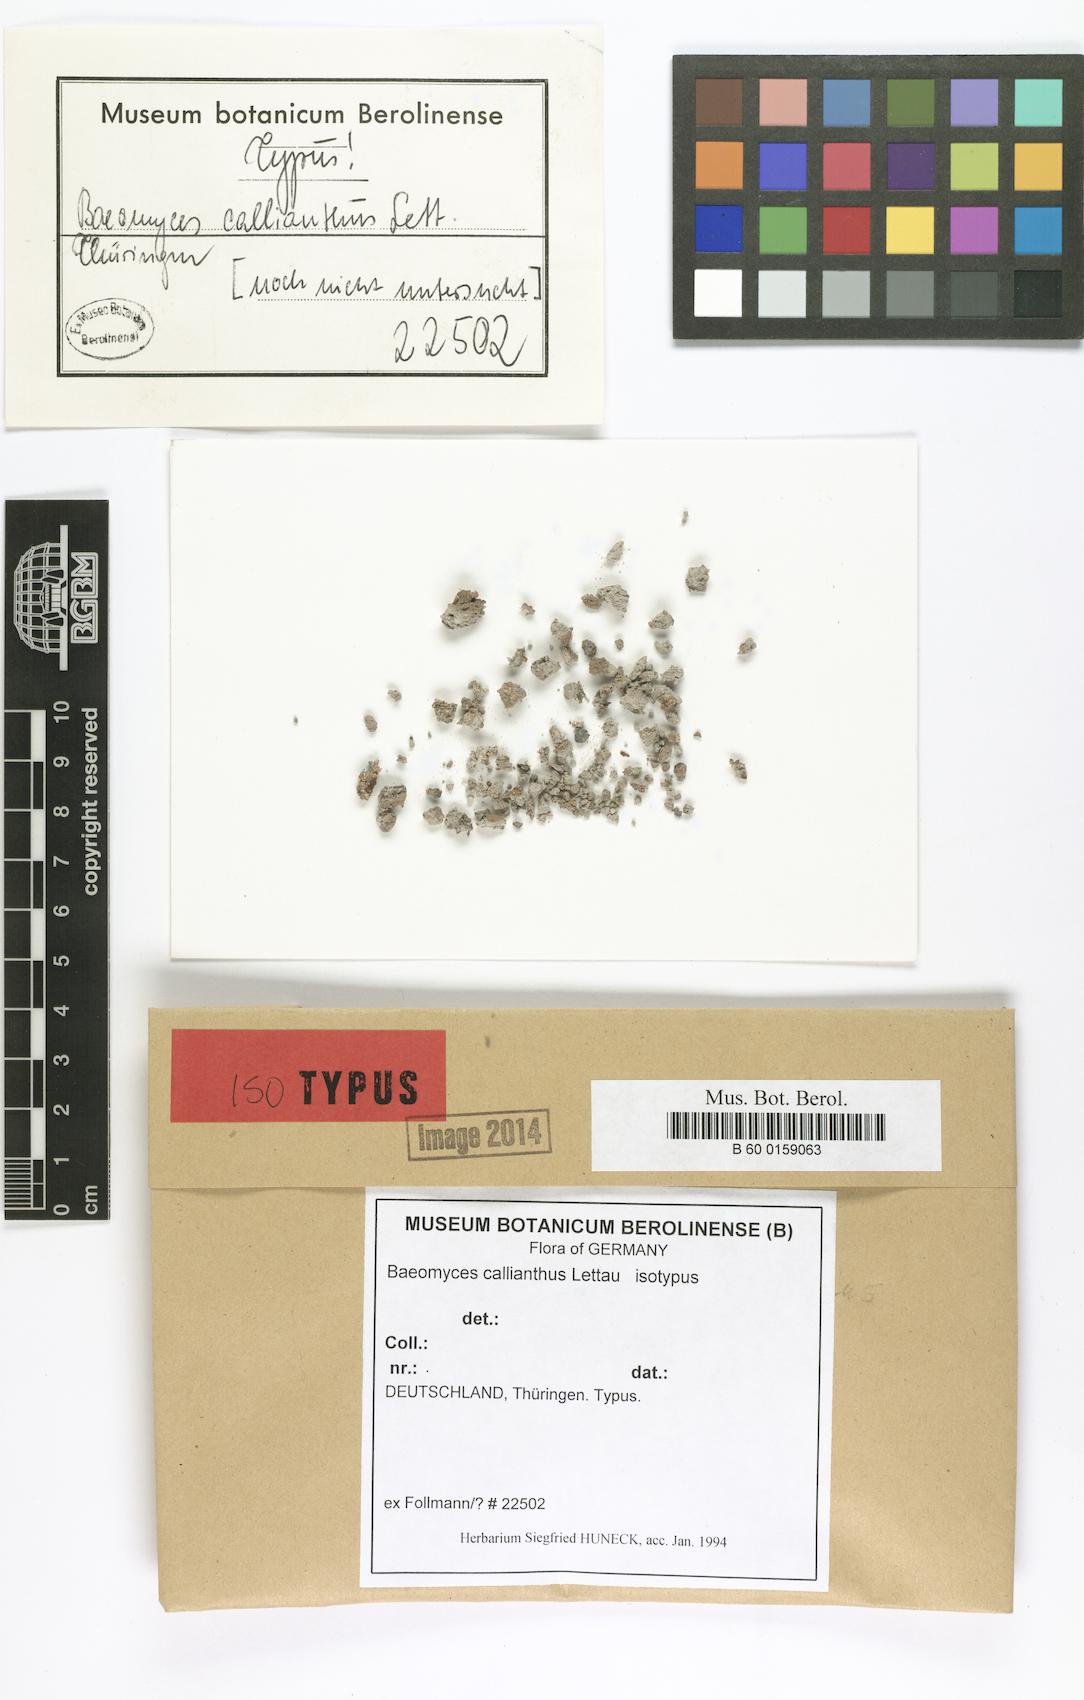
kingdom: Fungi
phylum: Ascomycota
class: Lecanoromycetes
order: Baeomycetales
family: Baeomycetaceae
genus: Baeomyces
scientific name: Baeomyces rufus
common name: Brown beret lichen
